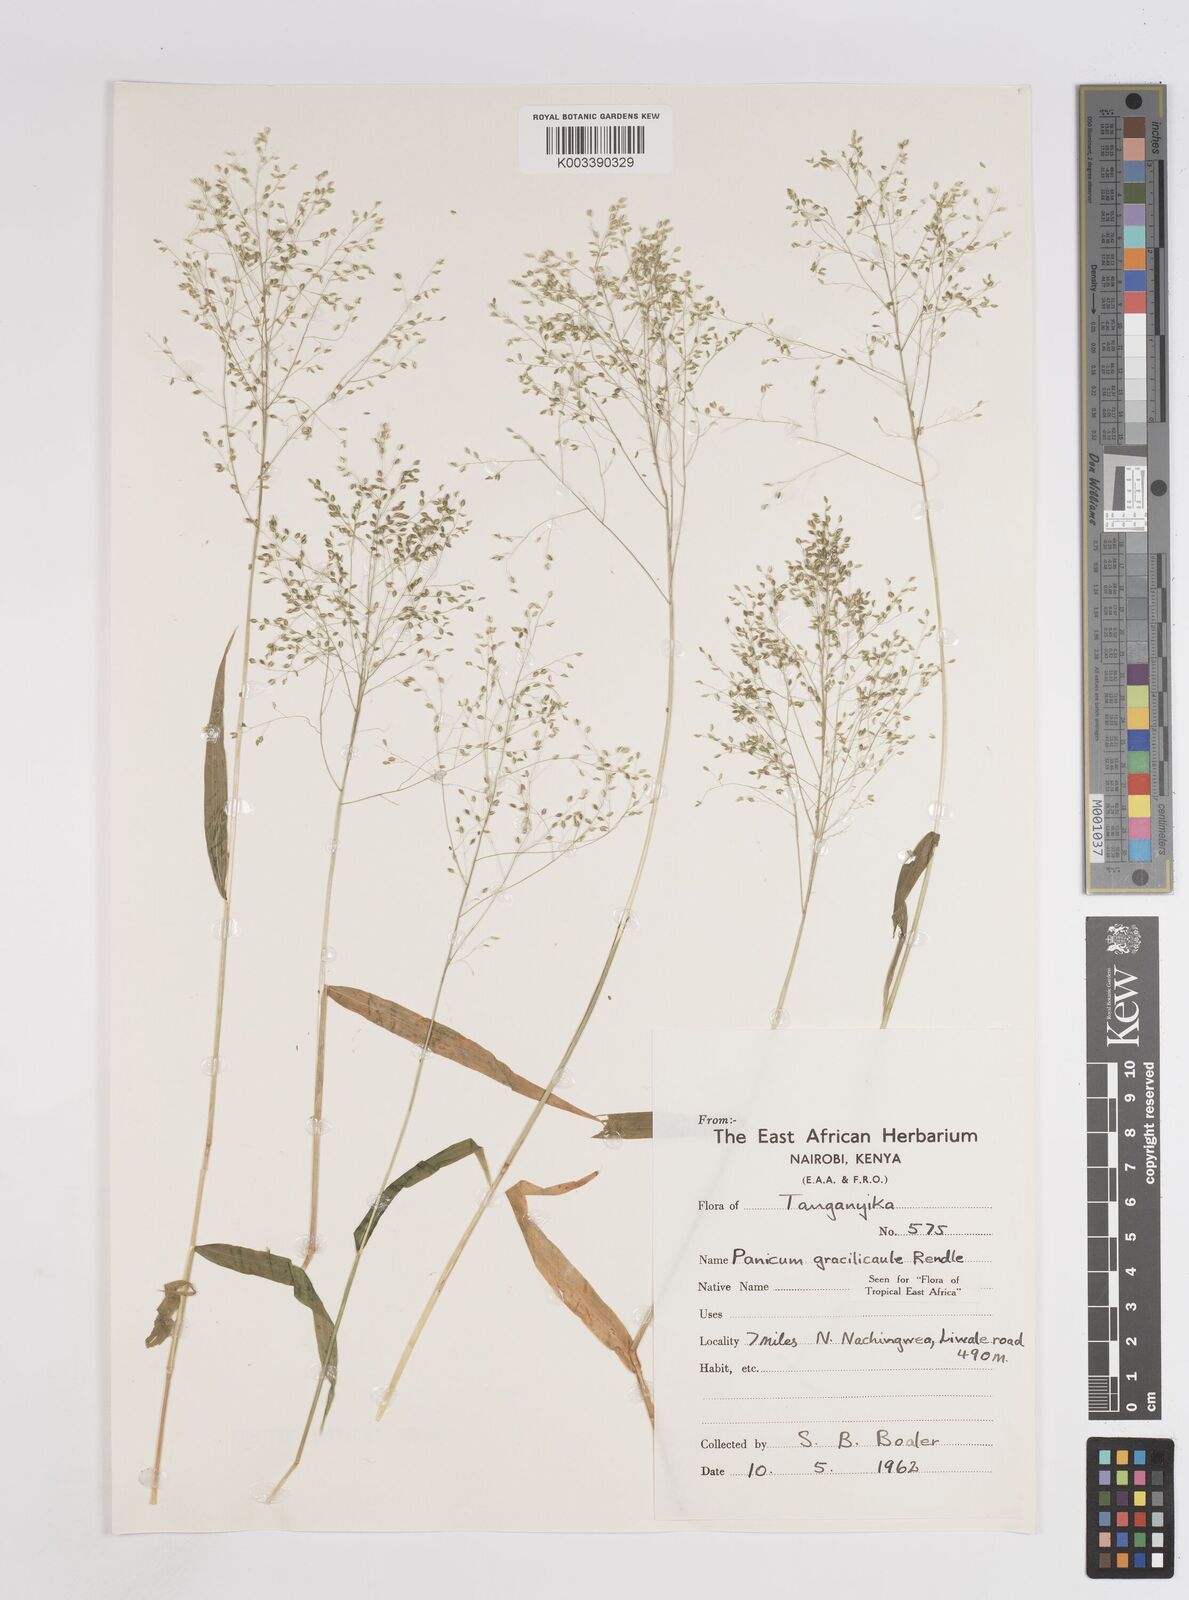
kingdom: Plantae
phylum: Tracheophyta
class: Liliopsida
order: Poales
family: Poaceae
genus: Trichanthecium
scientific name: Trichanthecium gracilicaule
